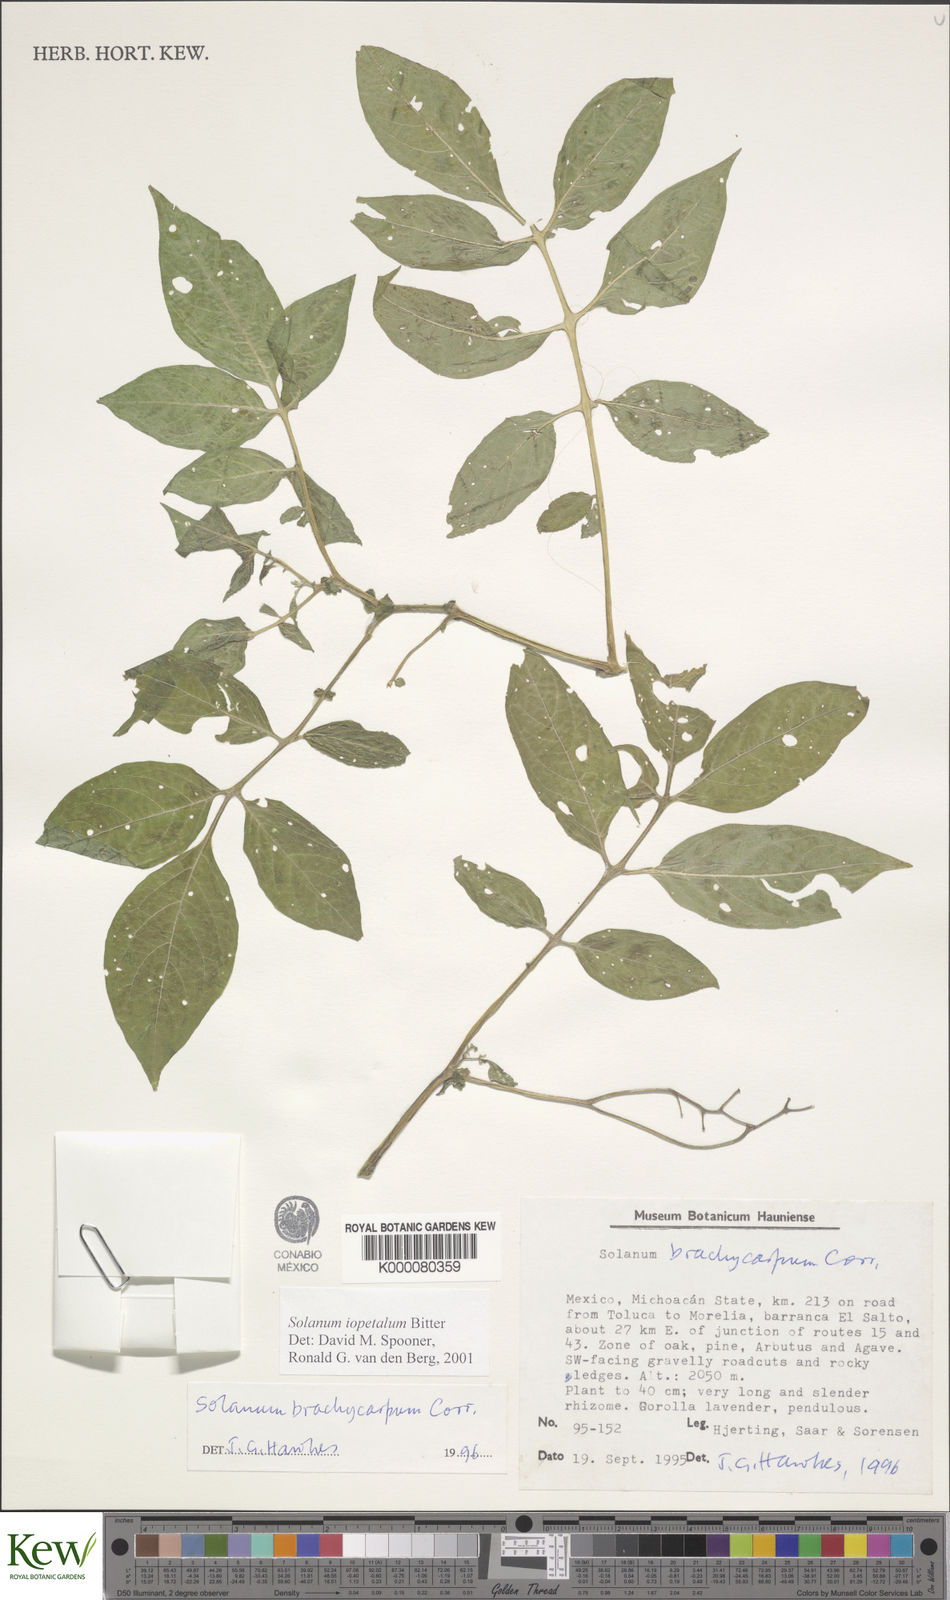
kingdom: Plantae
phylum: Tracheophyta
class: Magnoliopsida
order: Solanales
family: Solanaceae
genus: Solanum
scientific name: Solanum iopetalum
